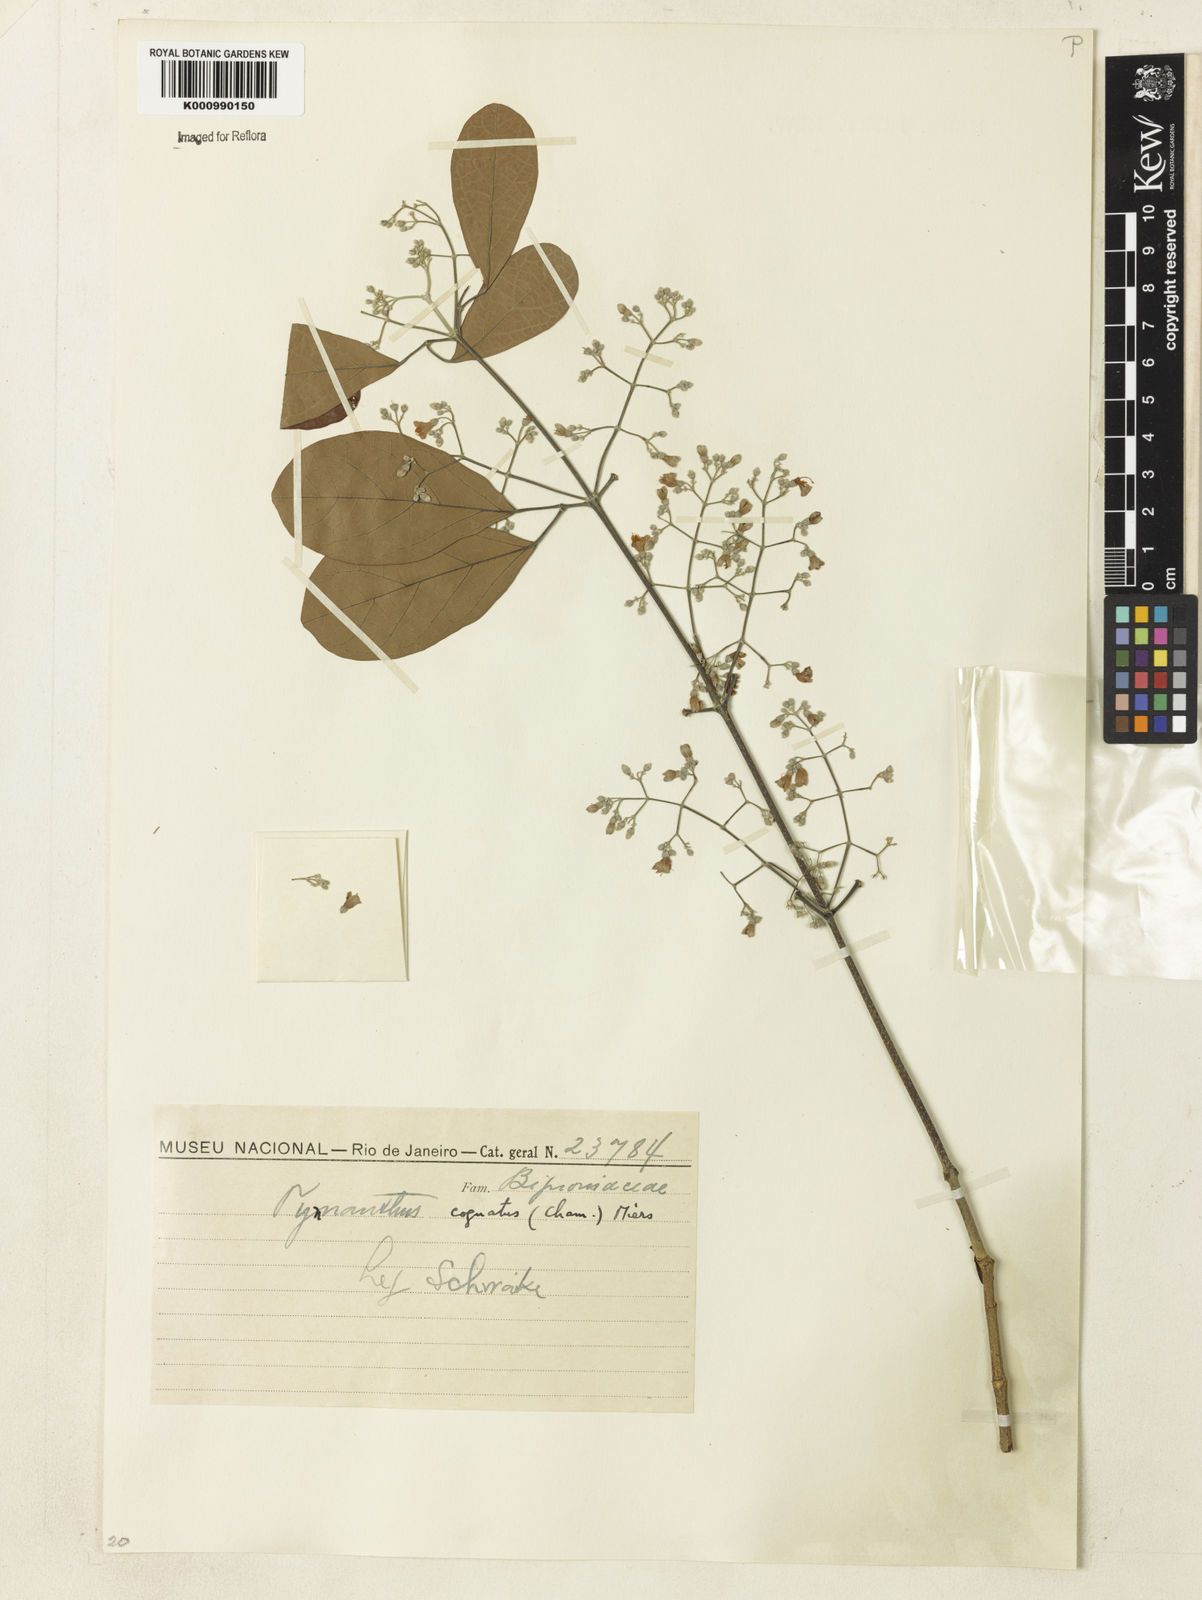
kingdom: Plantae
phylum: Tracheophyta
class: Magnoliopsida
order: Lamiales
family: Bignoniaceae
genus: Tynanthus
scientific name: Tynanthus cognatus
